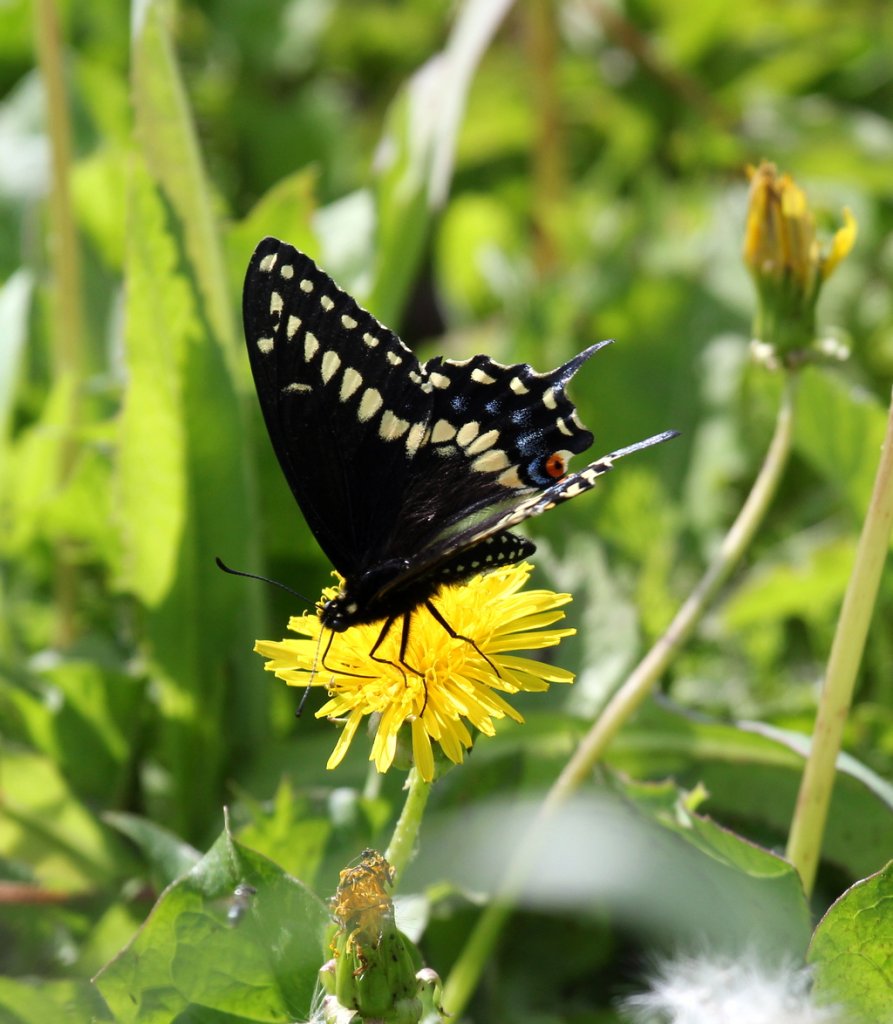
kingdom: Animalia
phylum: Arthropoda
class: Insecta
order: Lepidoptera
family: Papilionidae
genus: Papilio
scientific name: Papilio polyxenes
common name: Black Swallowtail
